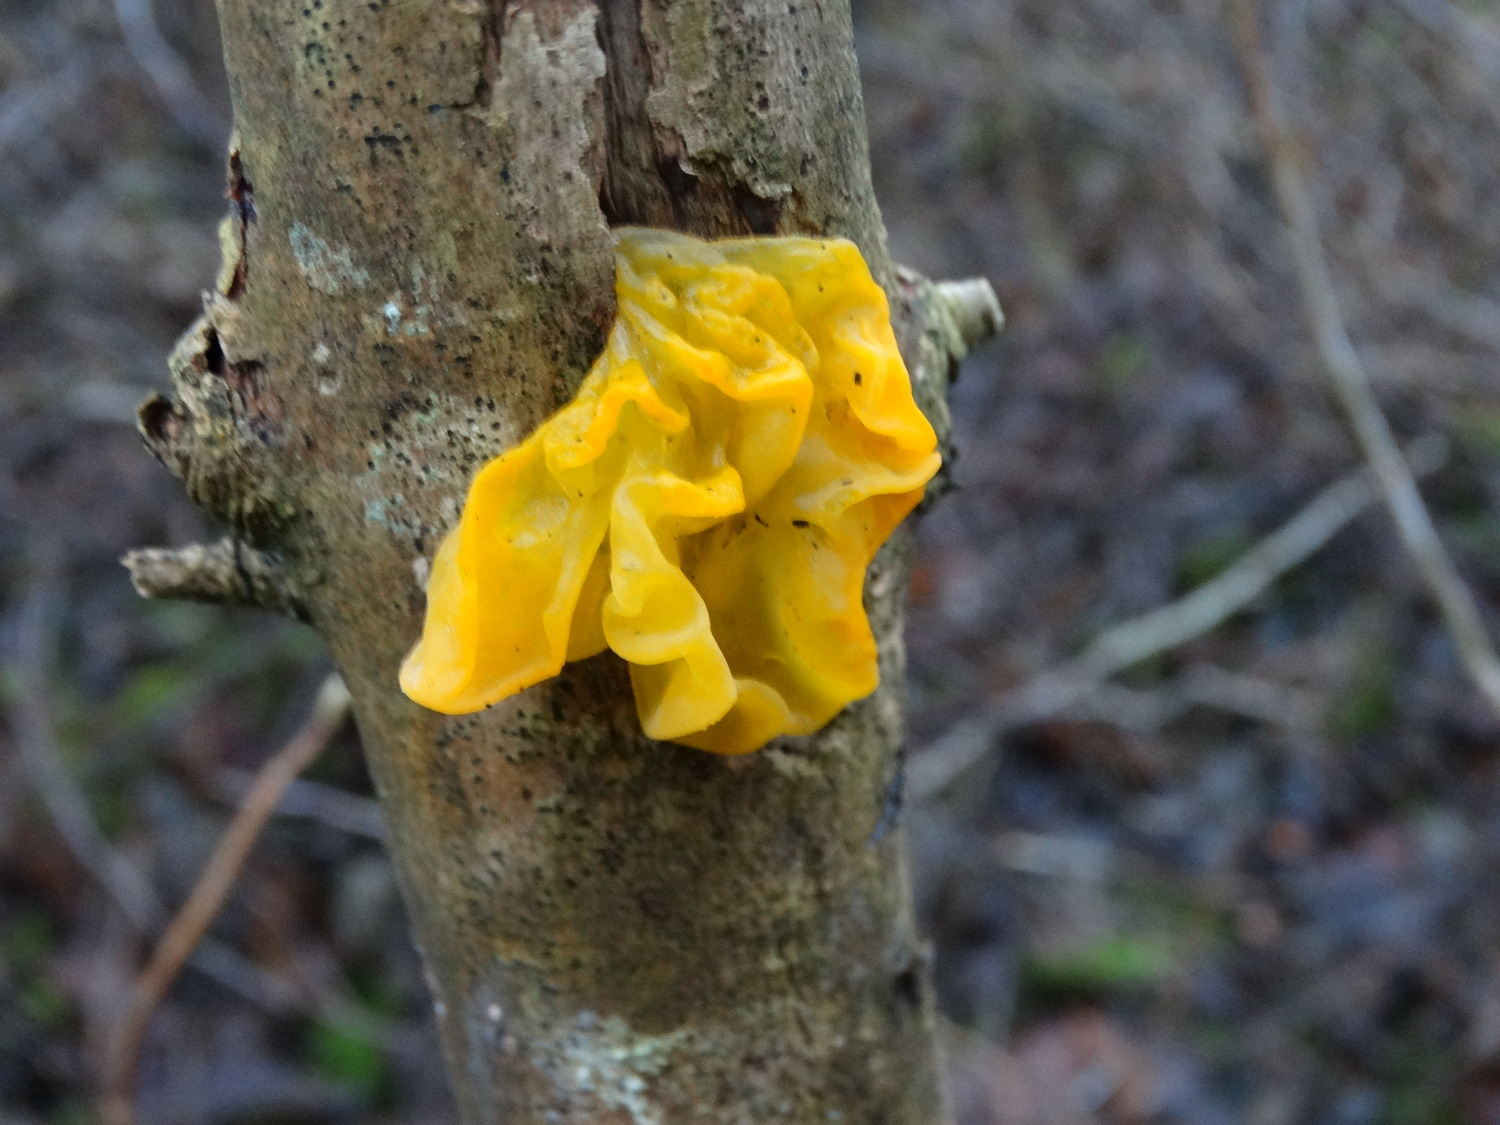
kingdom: Fungi
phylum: Basidiomycota
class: Tremellomycetes
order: Tremellales
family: Tremellaceae
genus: Tremella
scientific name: Tremella mesenterica
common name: gul bævresvamp
